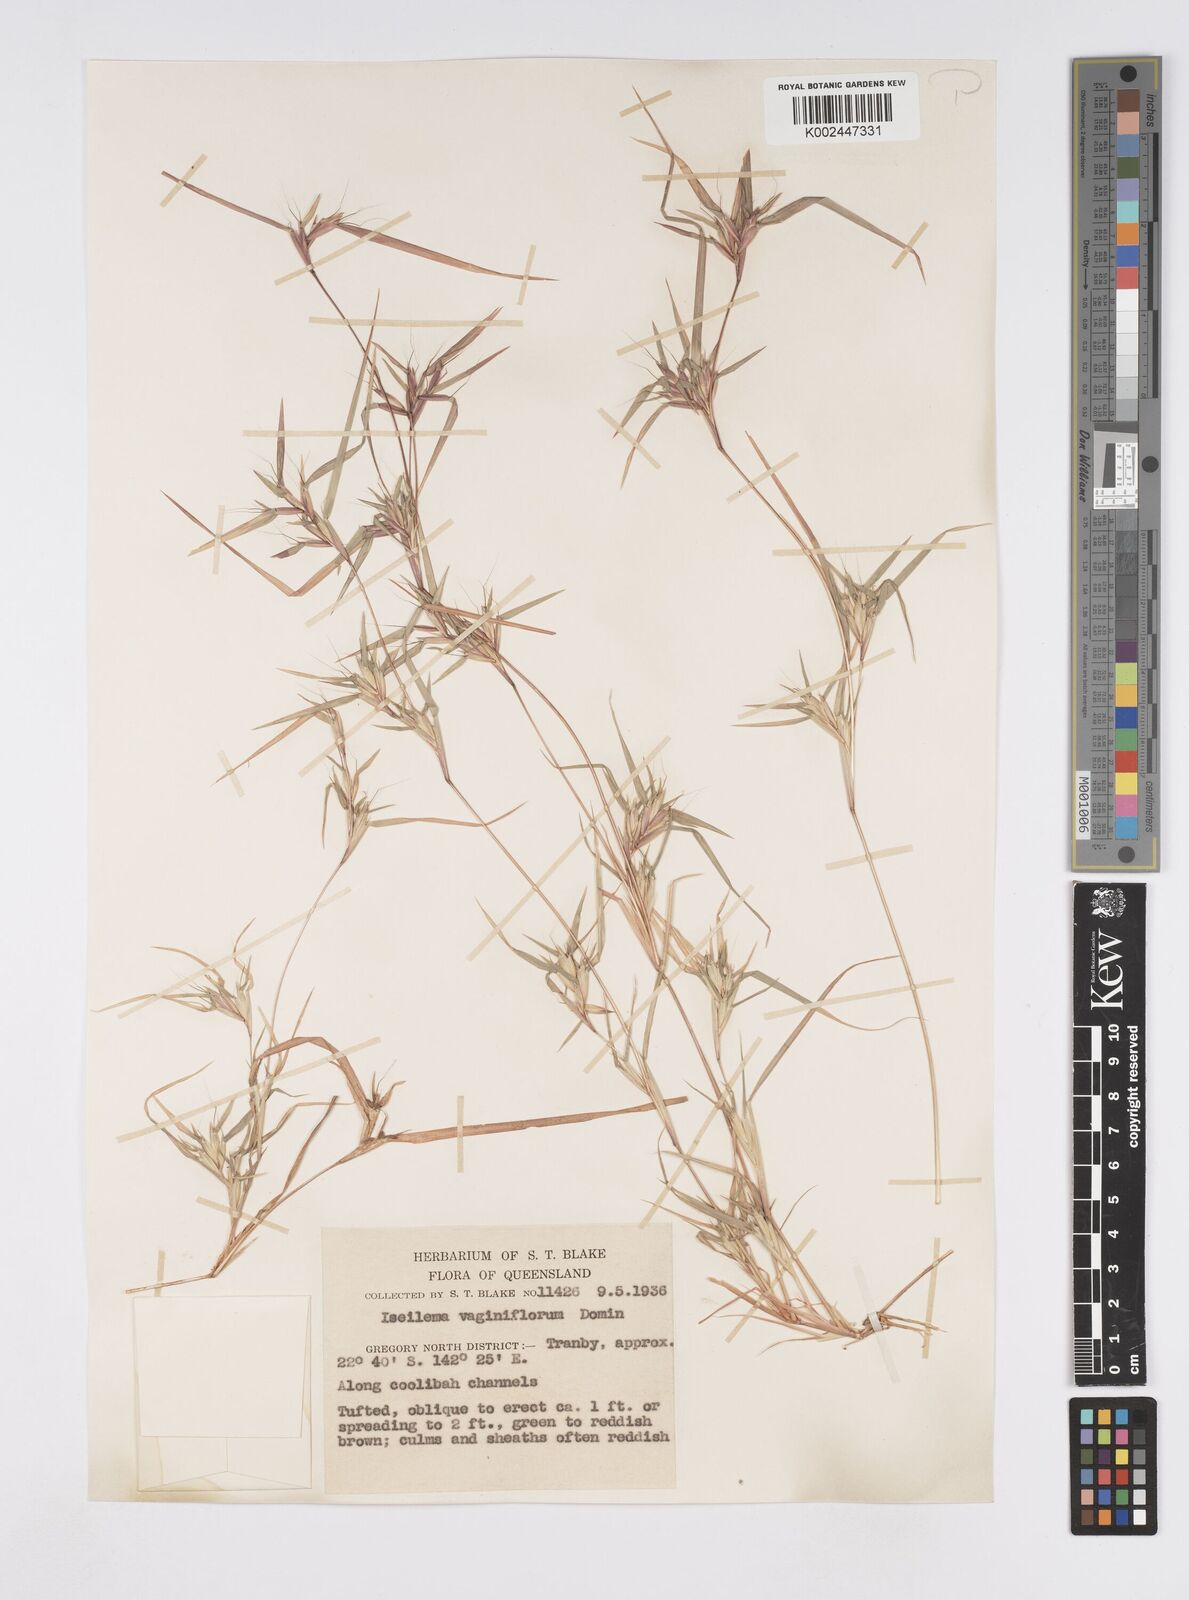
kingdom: Plantae
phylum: Tracheophyta
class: Liliopsida
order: Poales
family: Poaceae
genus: Iseilema
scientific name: Iseilema vaginiflorum
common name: Red flinders grass
